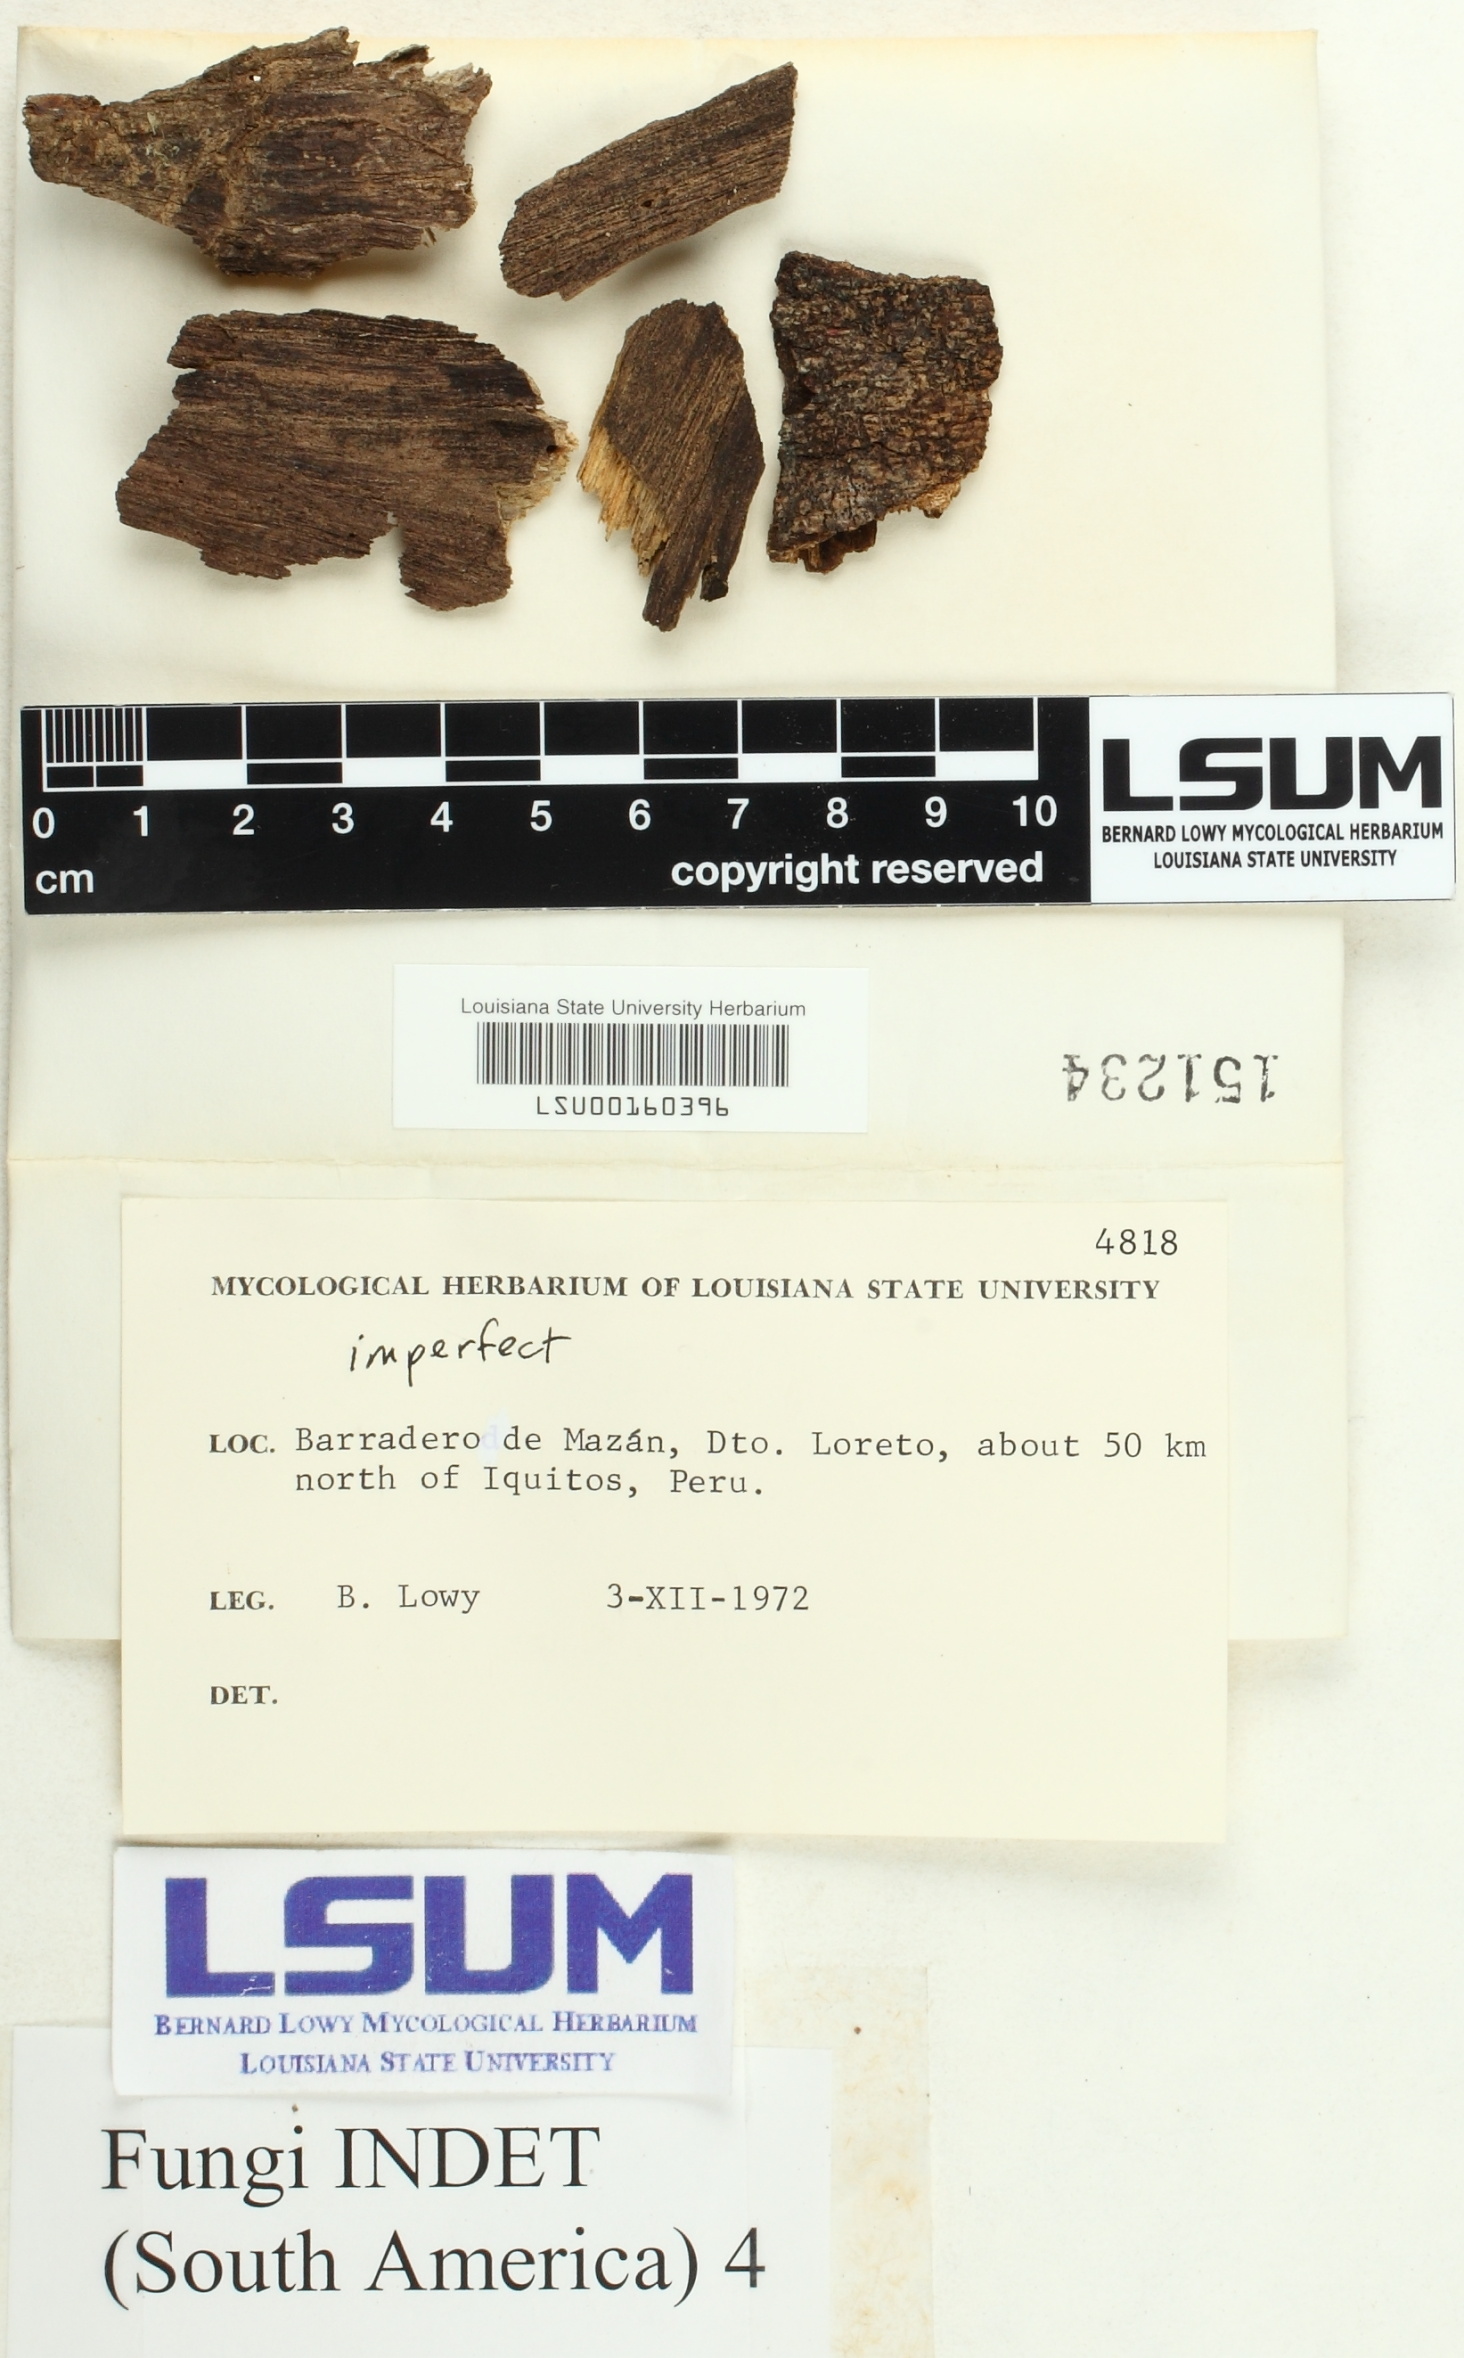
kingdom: Fungi
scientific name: Fungi
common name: Fungi
